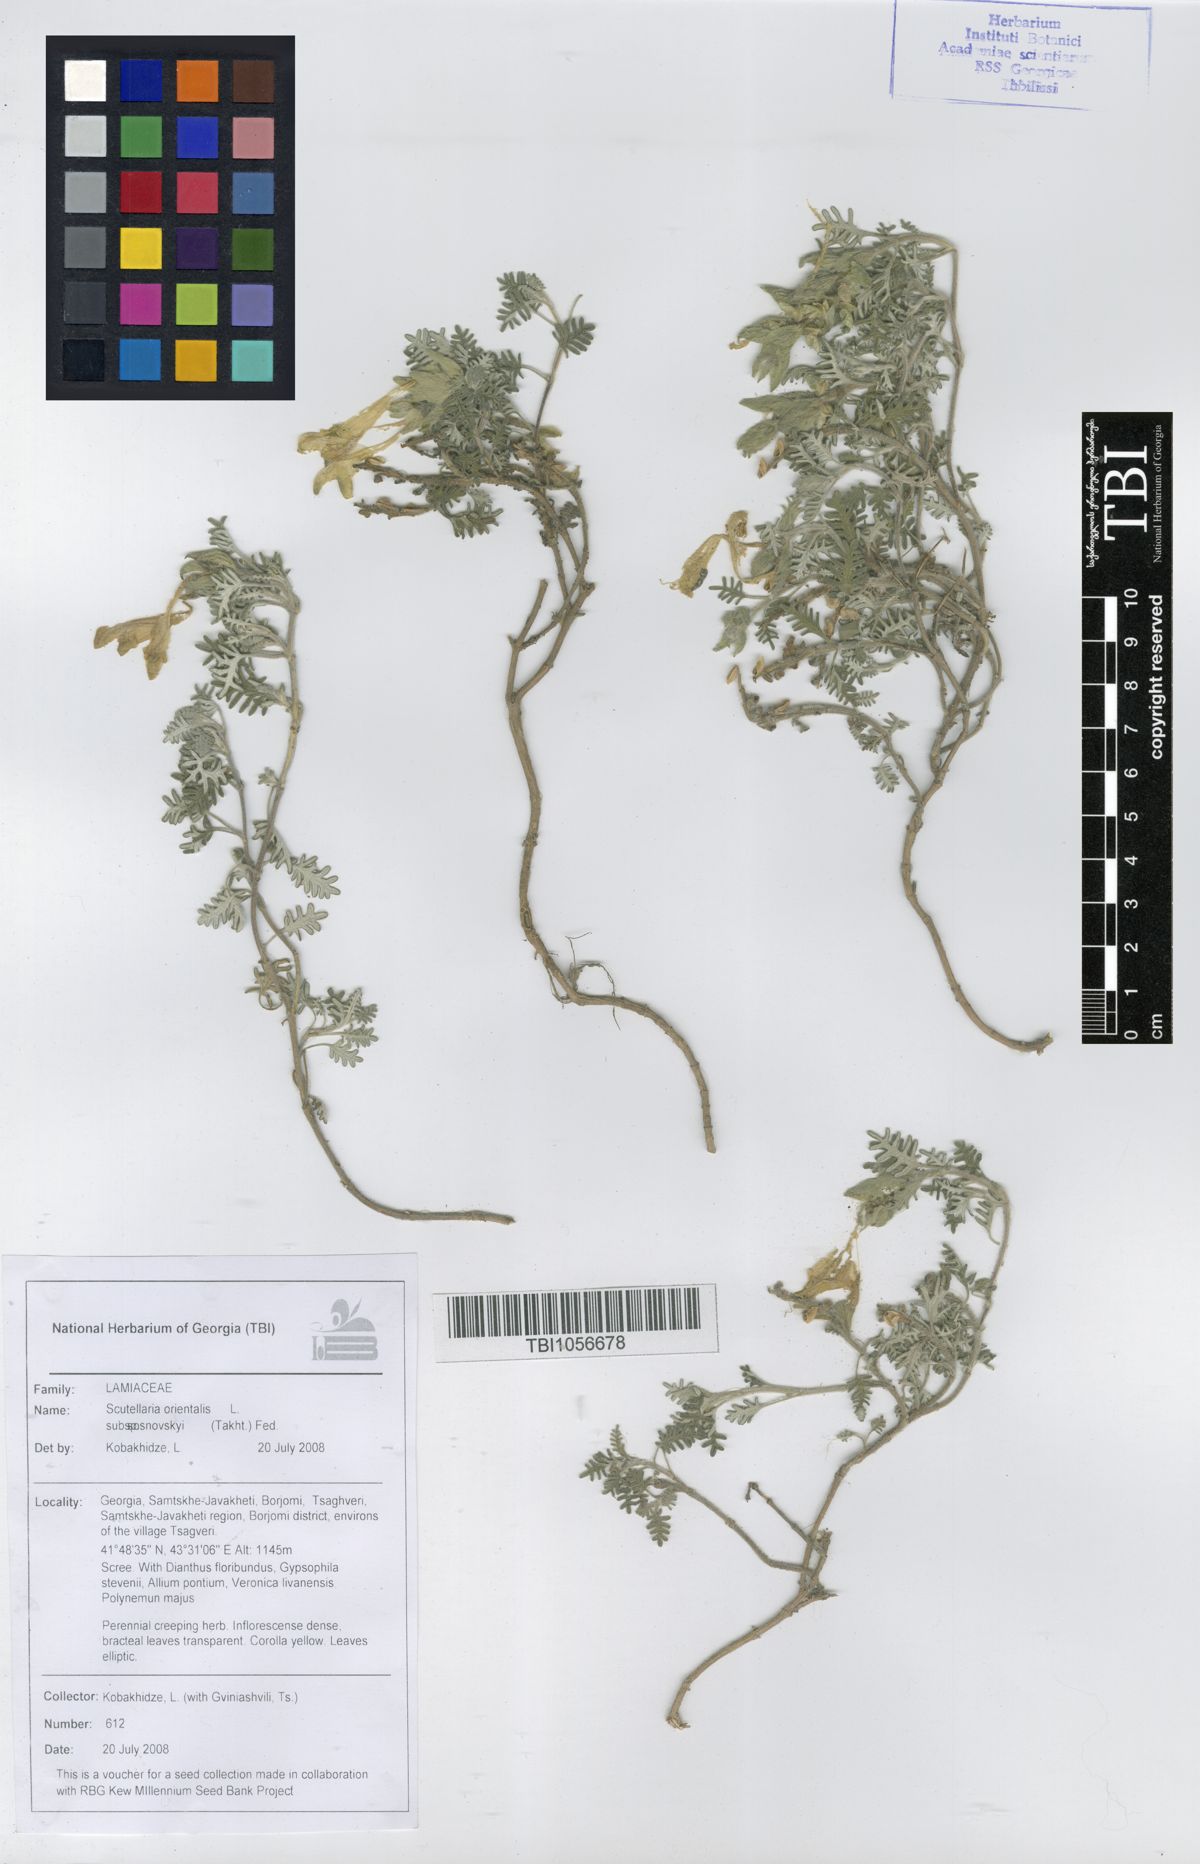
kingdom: Plantae
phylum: Tracheophyta
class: Magnoliopsida
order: Lamiales
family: Lamiaceae
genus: Scutellaria
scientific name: Scutellaria orientalis
